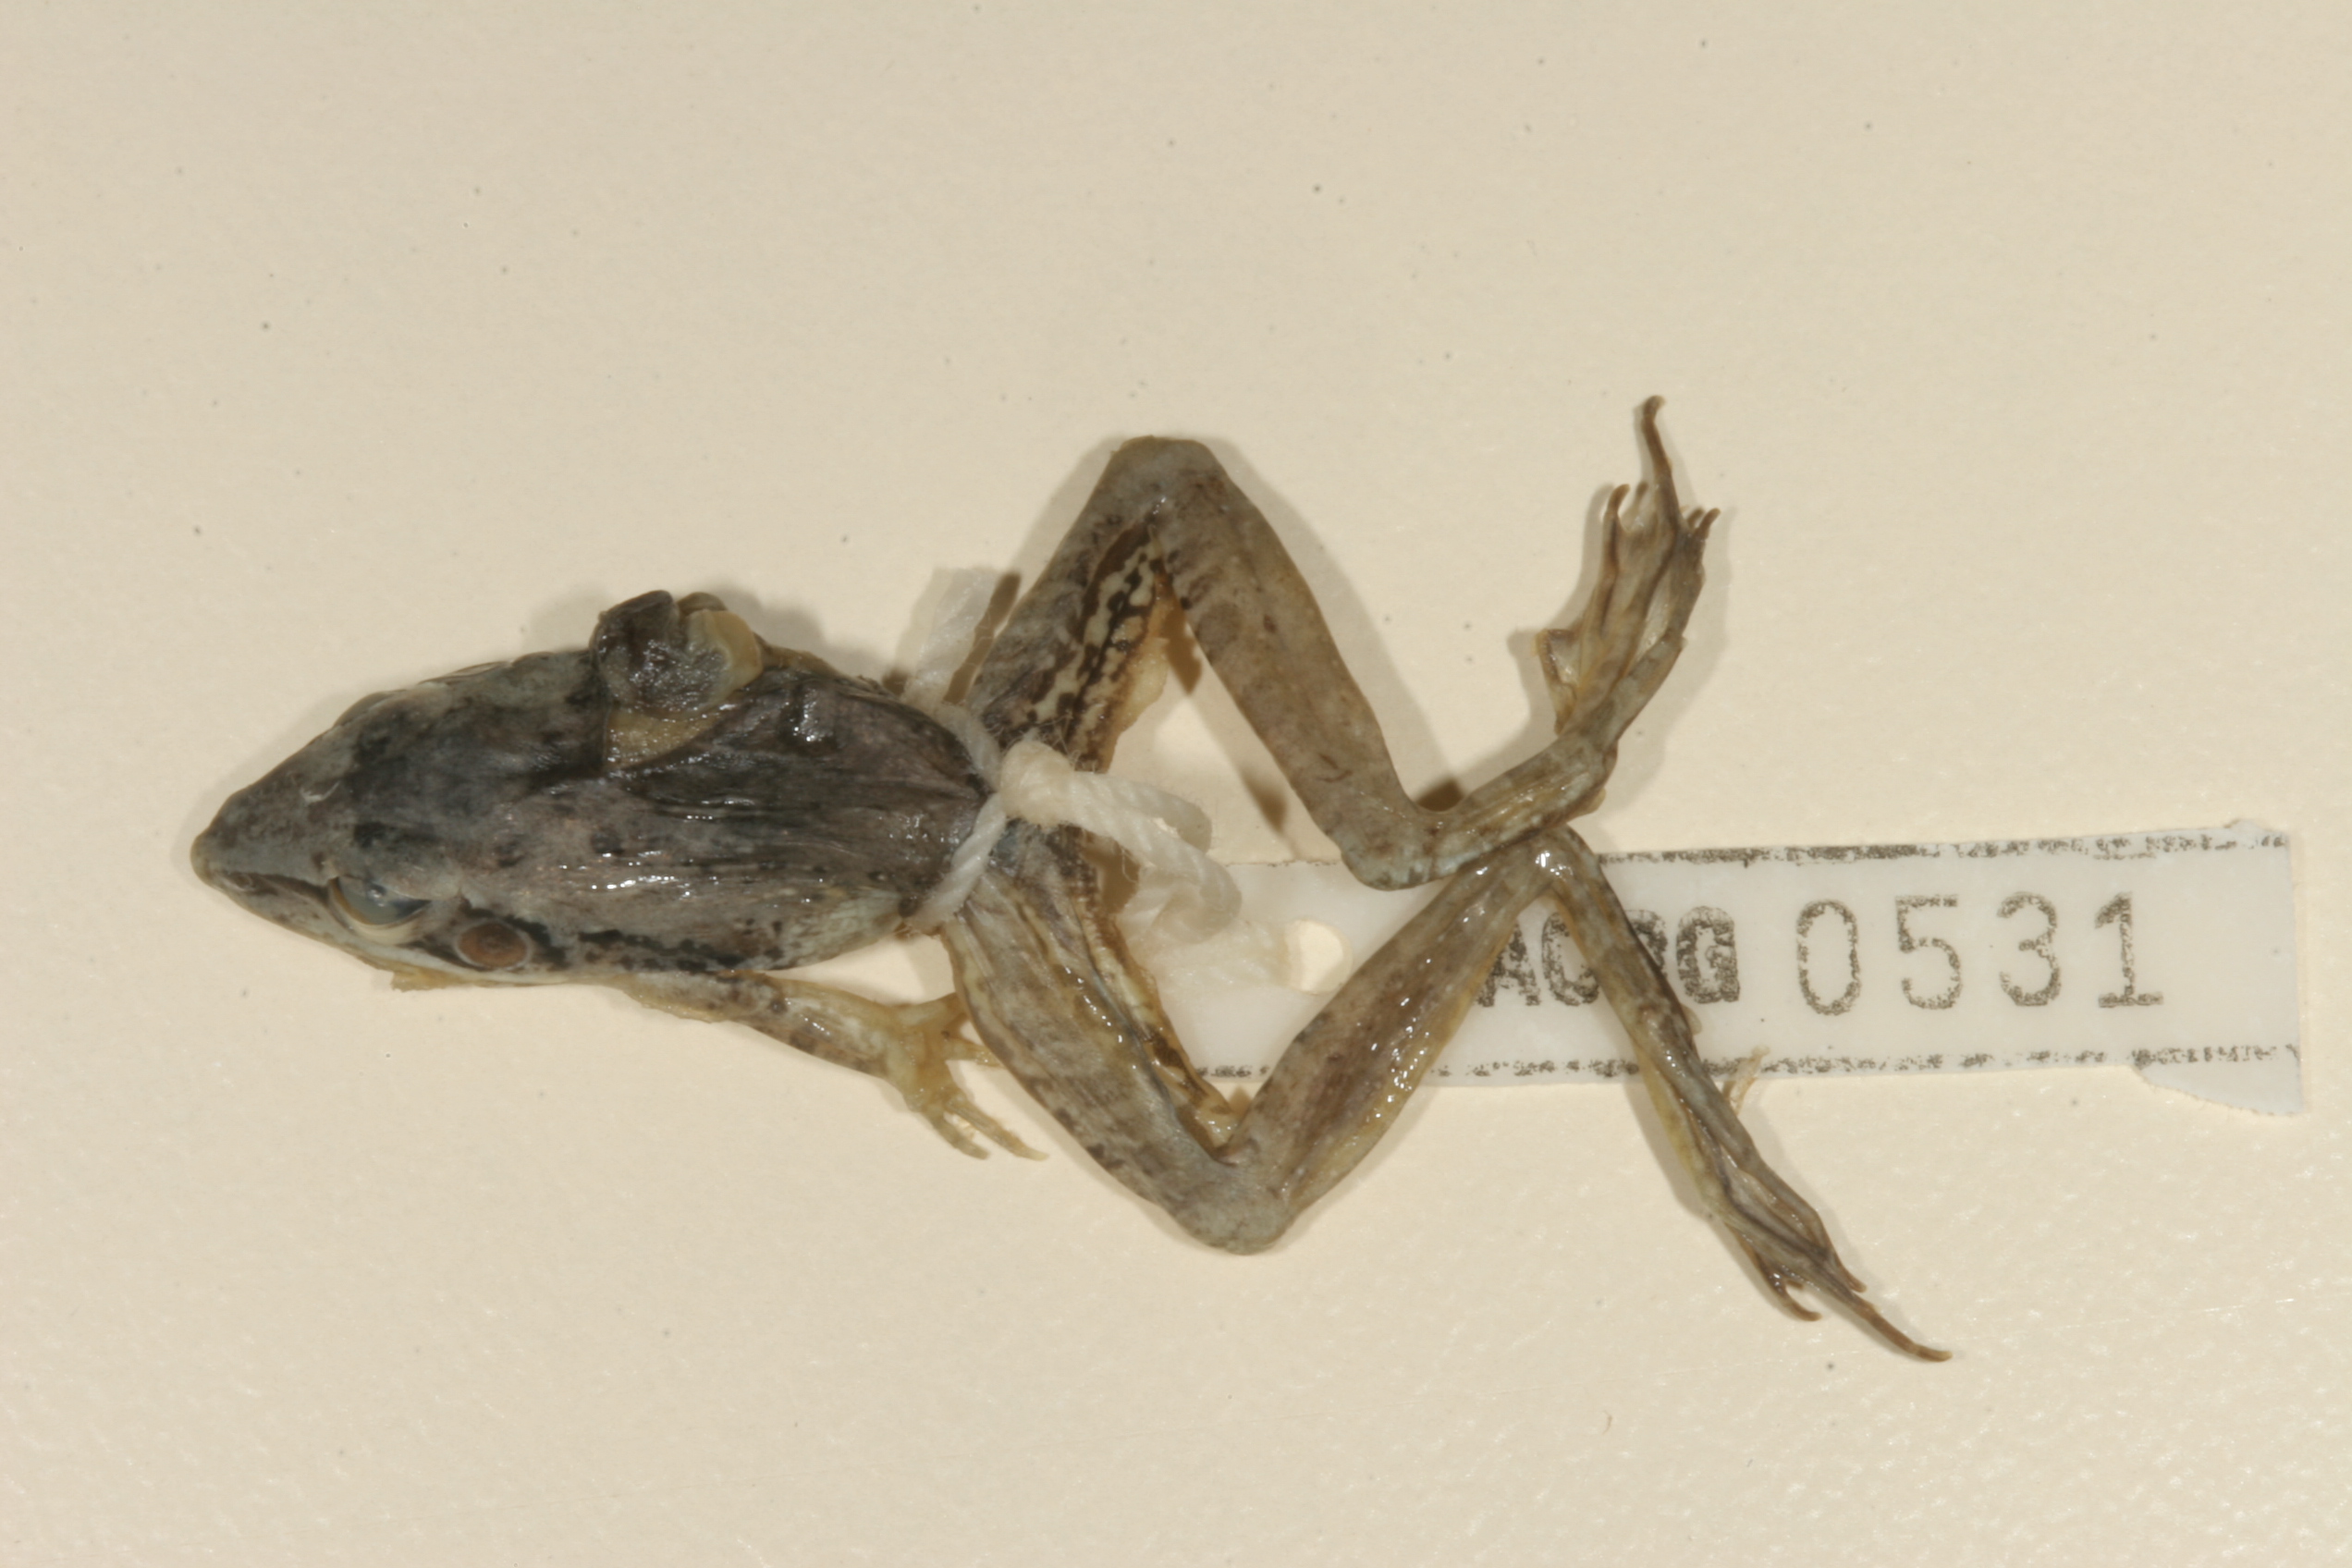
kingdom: Animalia
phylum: Chordata
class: Amphibia
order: Anura
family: Ptychadenidae
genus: Ptychadena
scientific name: Ptychadena anchietae
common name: Anchieta's ridged frog
